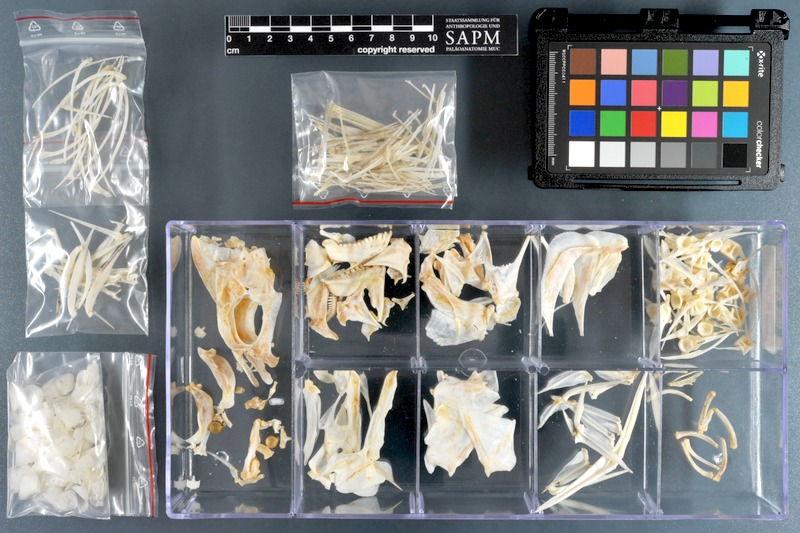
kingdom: Animalia
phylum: Chordata
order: Perciformes
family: Sparidae
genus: Acanthopagrus
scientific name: Acanthopagrus berda
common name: Picnic seabream
